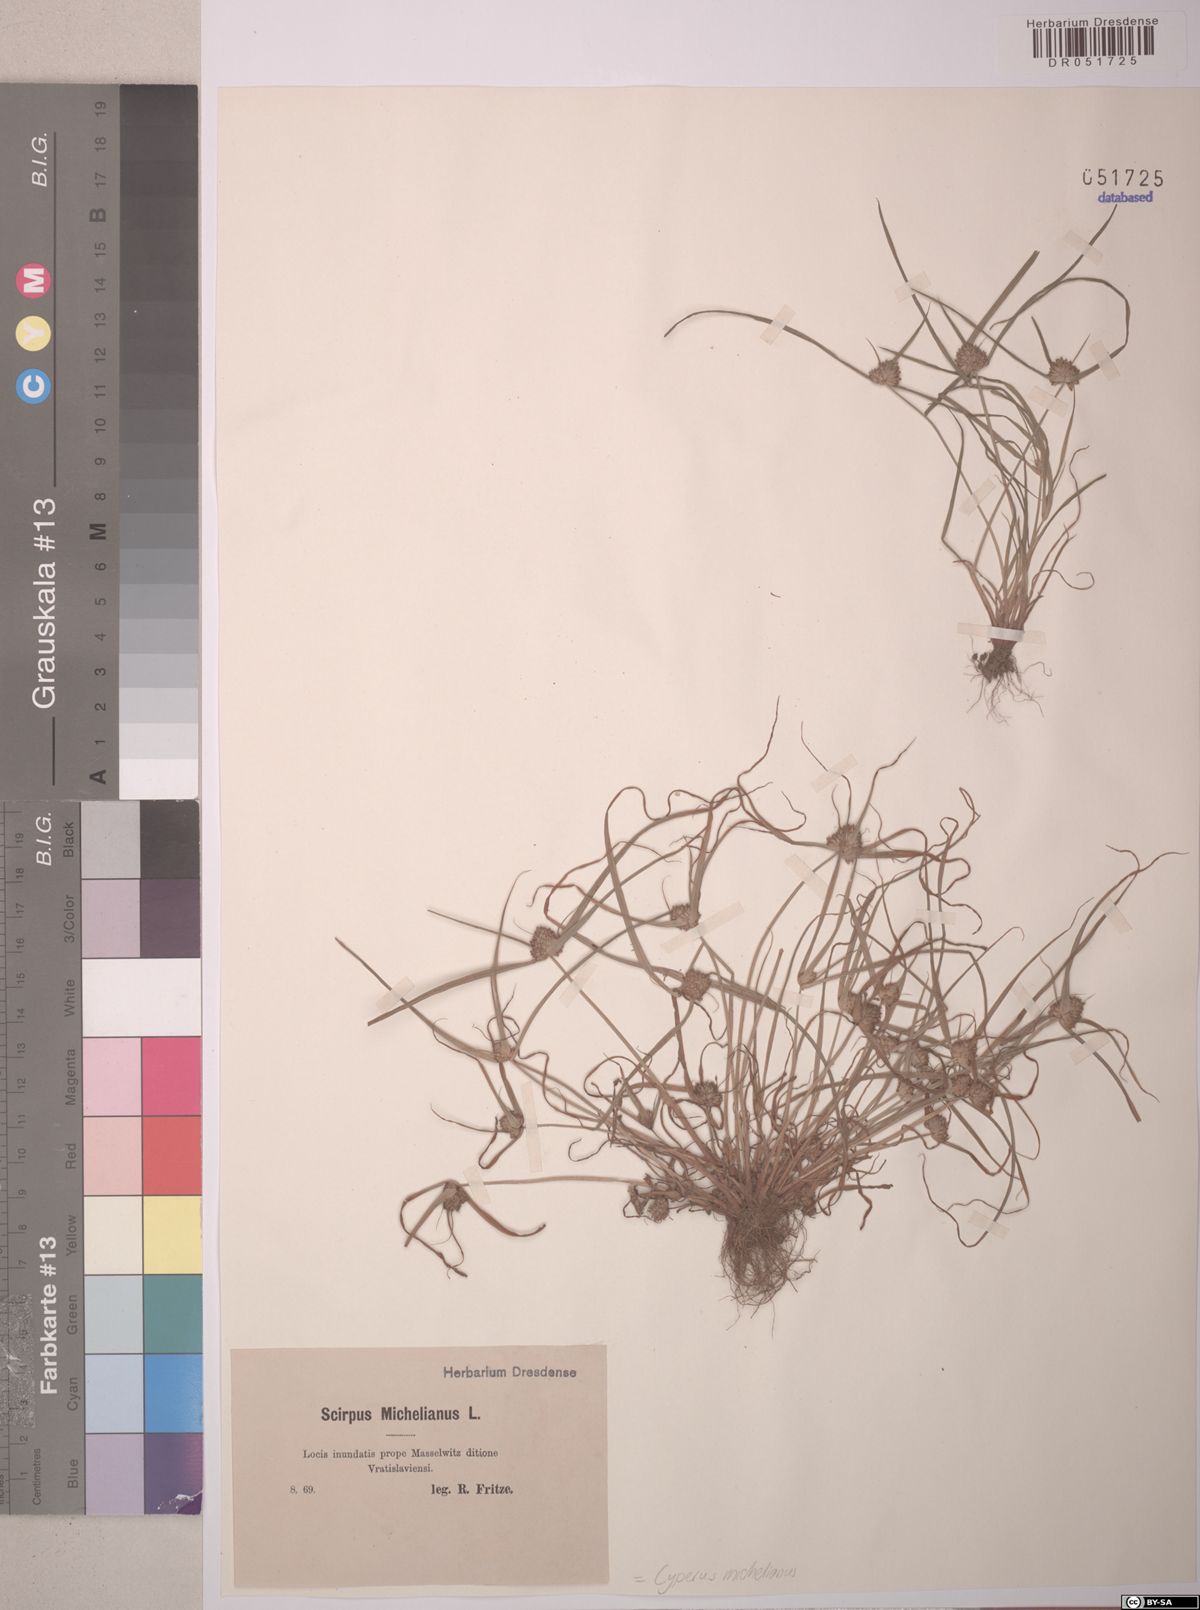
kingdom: Plantae
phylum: Tracheophyta
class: Liliopsida
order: Poales
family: Cyperaceae
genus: Cyperus
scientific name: Cyperus michelianus
